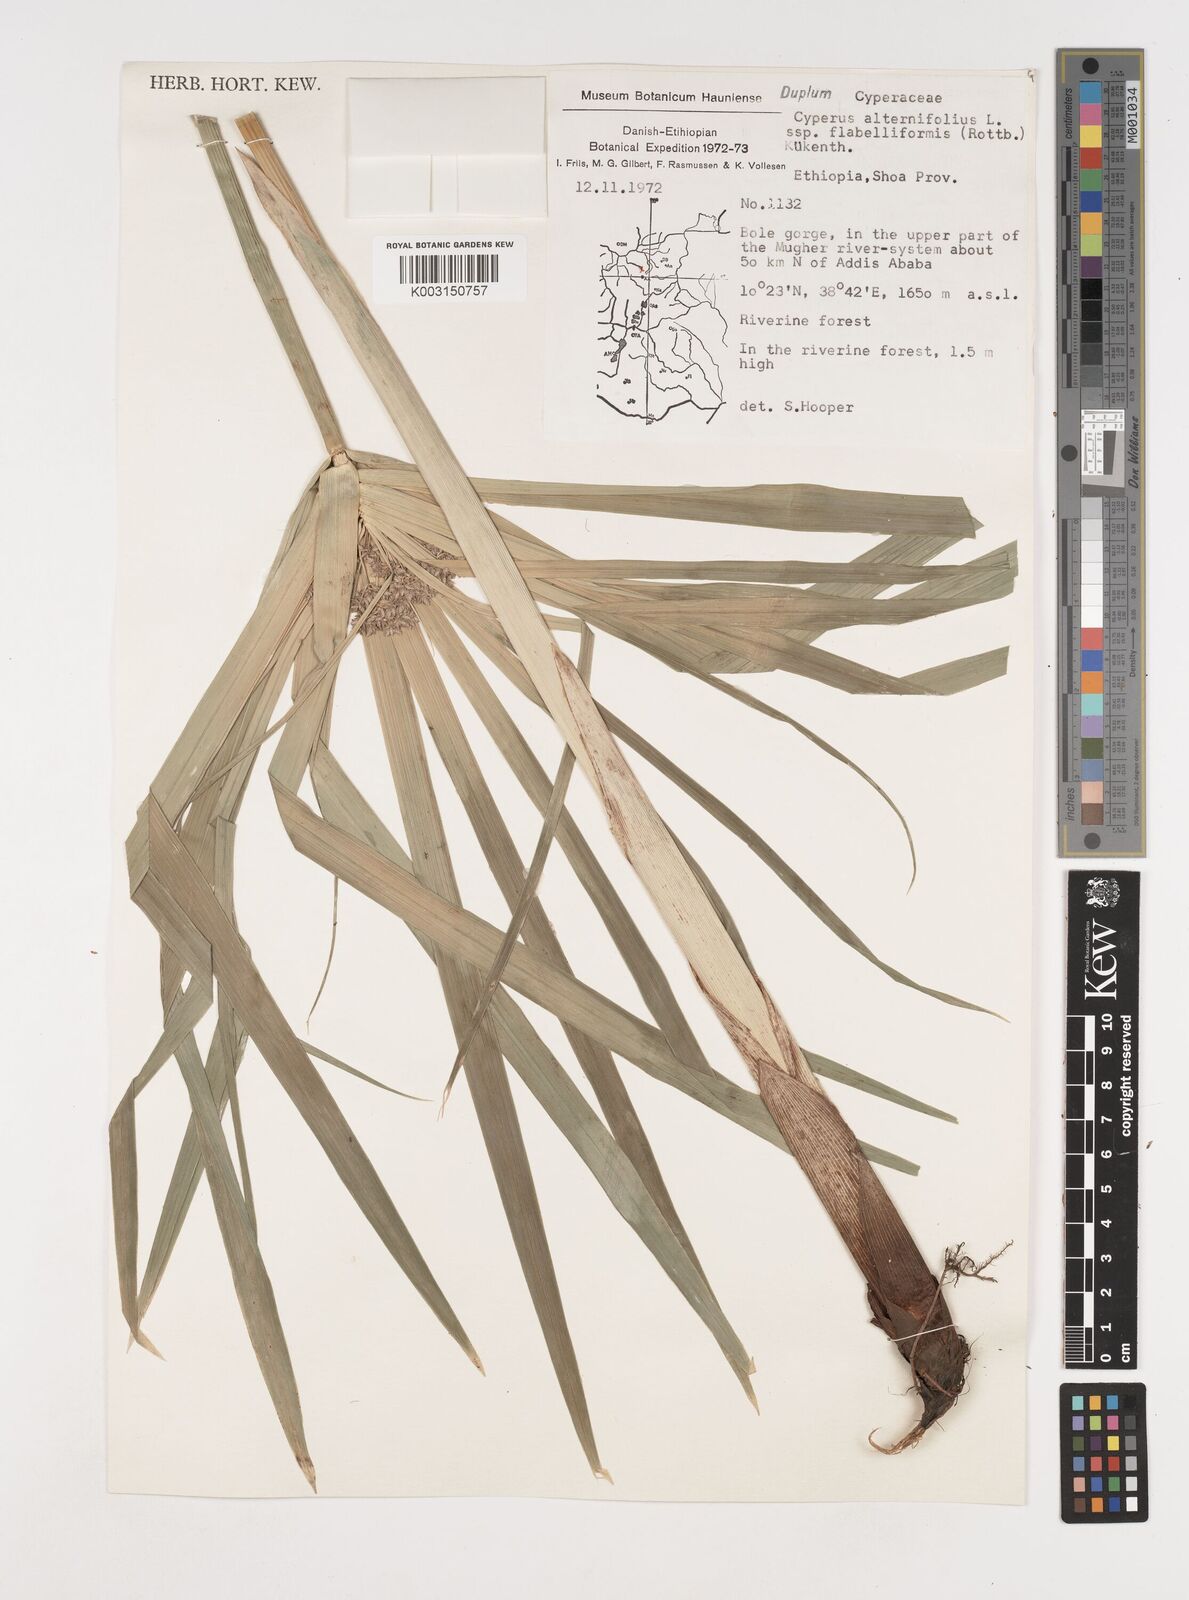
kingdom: Plantae
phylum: Tracheophyta
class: Liliopsida
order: Poales
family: Cyperaceae
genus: Cyperus
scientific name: Cyperus alternifolius
